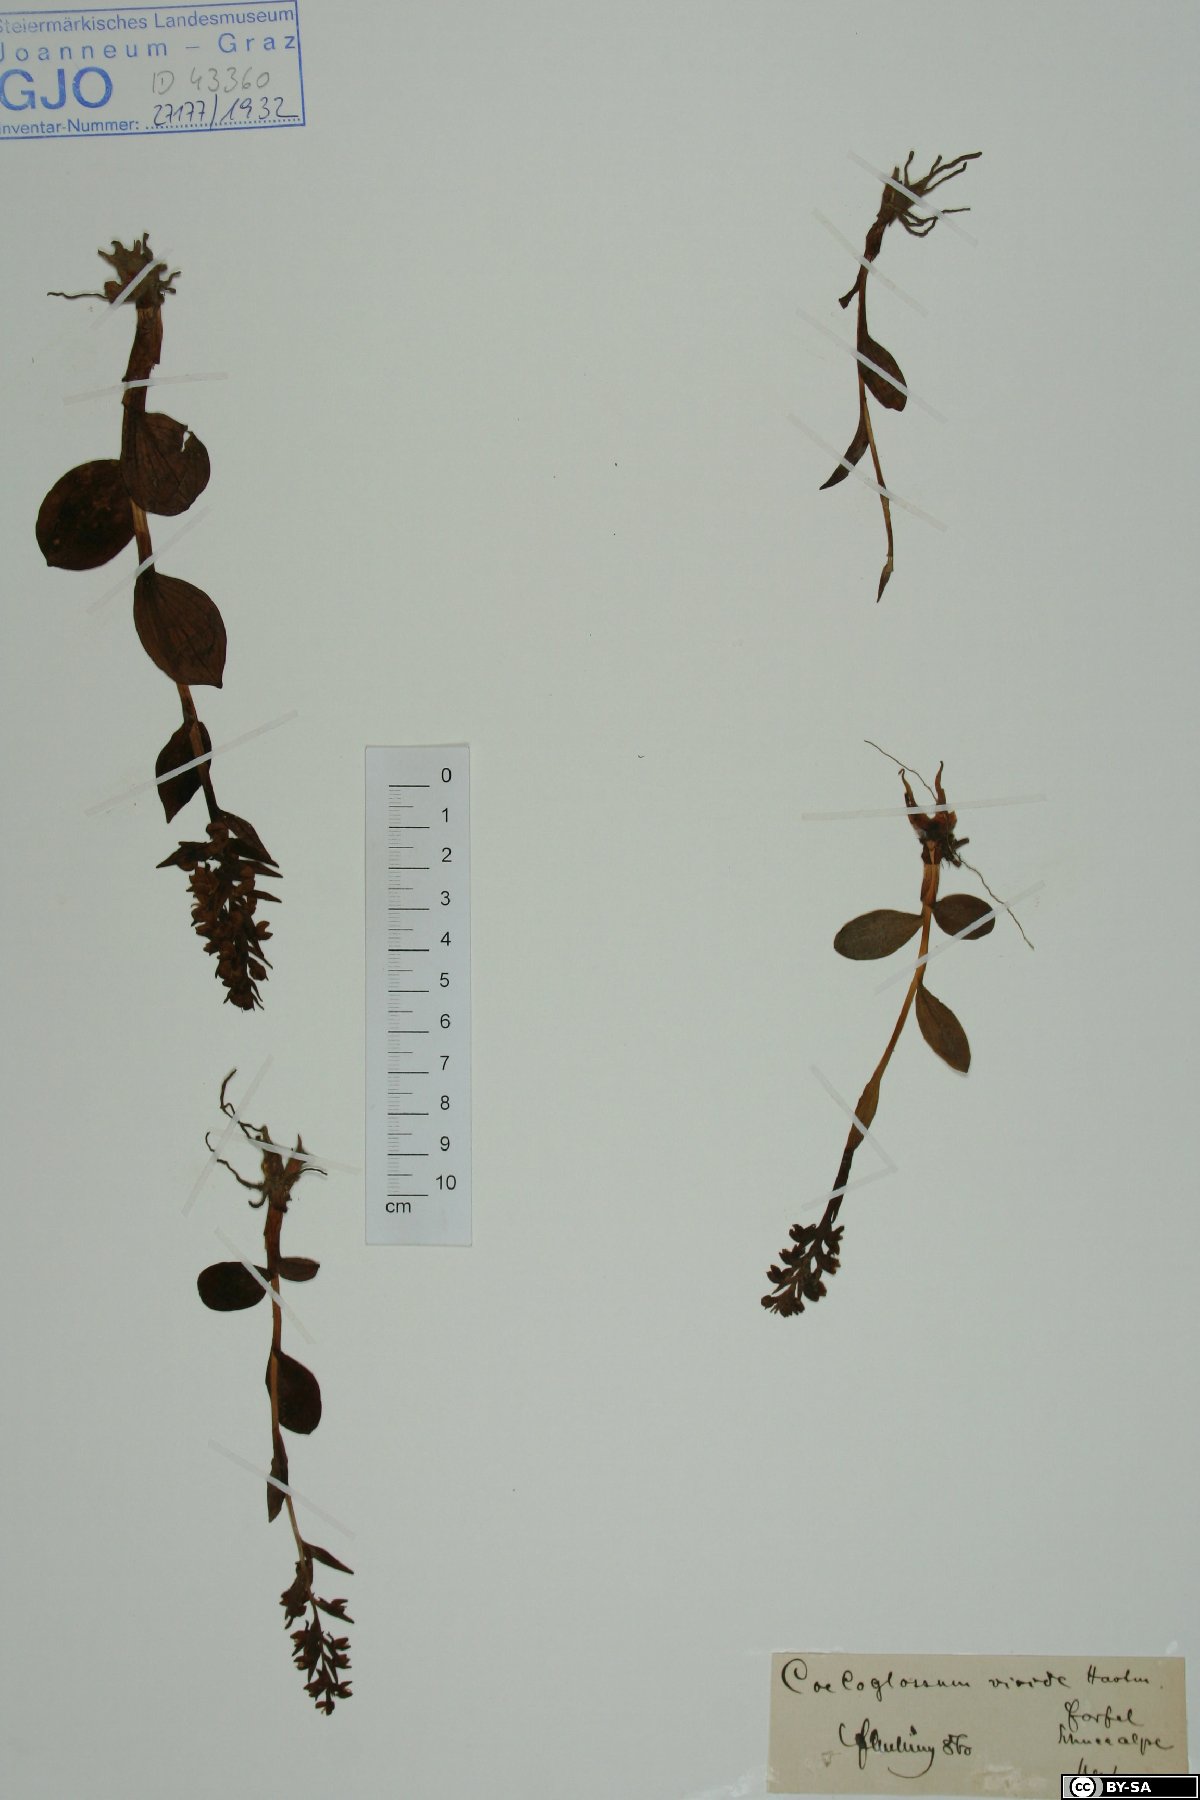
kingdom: Plantae
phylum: Tracheophyta
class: Liliopsida
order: Asparagales
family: Orchidaceae
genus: Dactylorhiza
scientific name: Dactylorhiza viridis
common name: Longbract frog orchid
